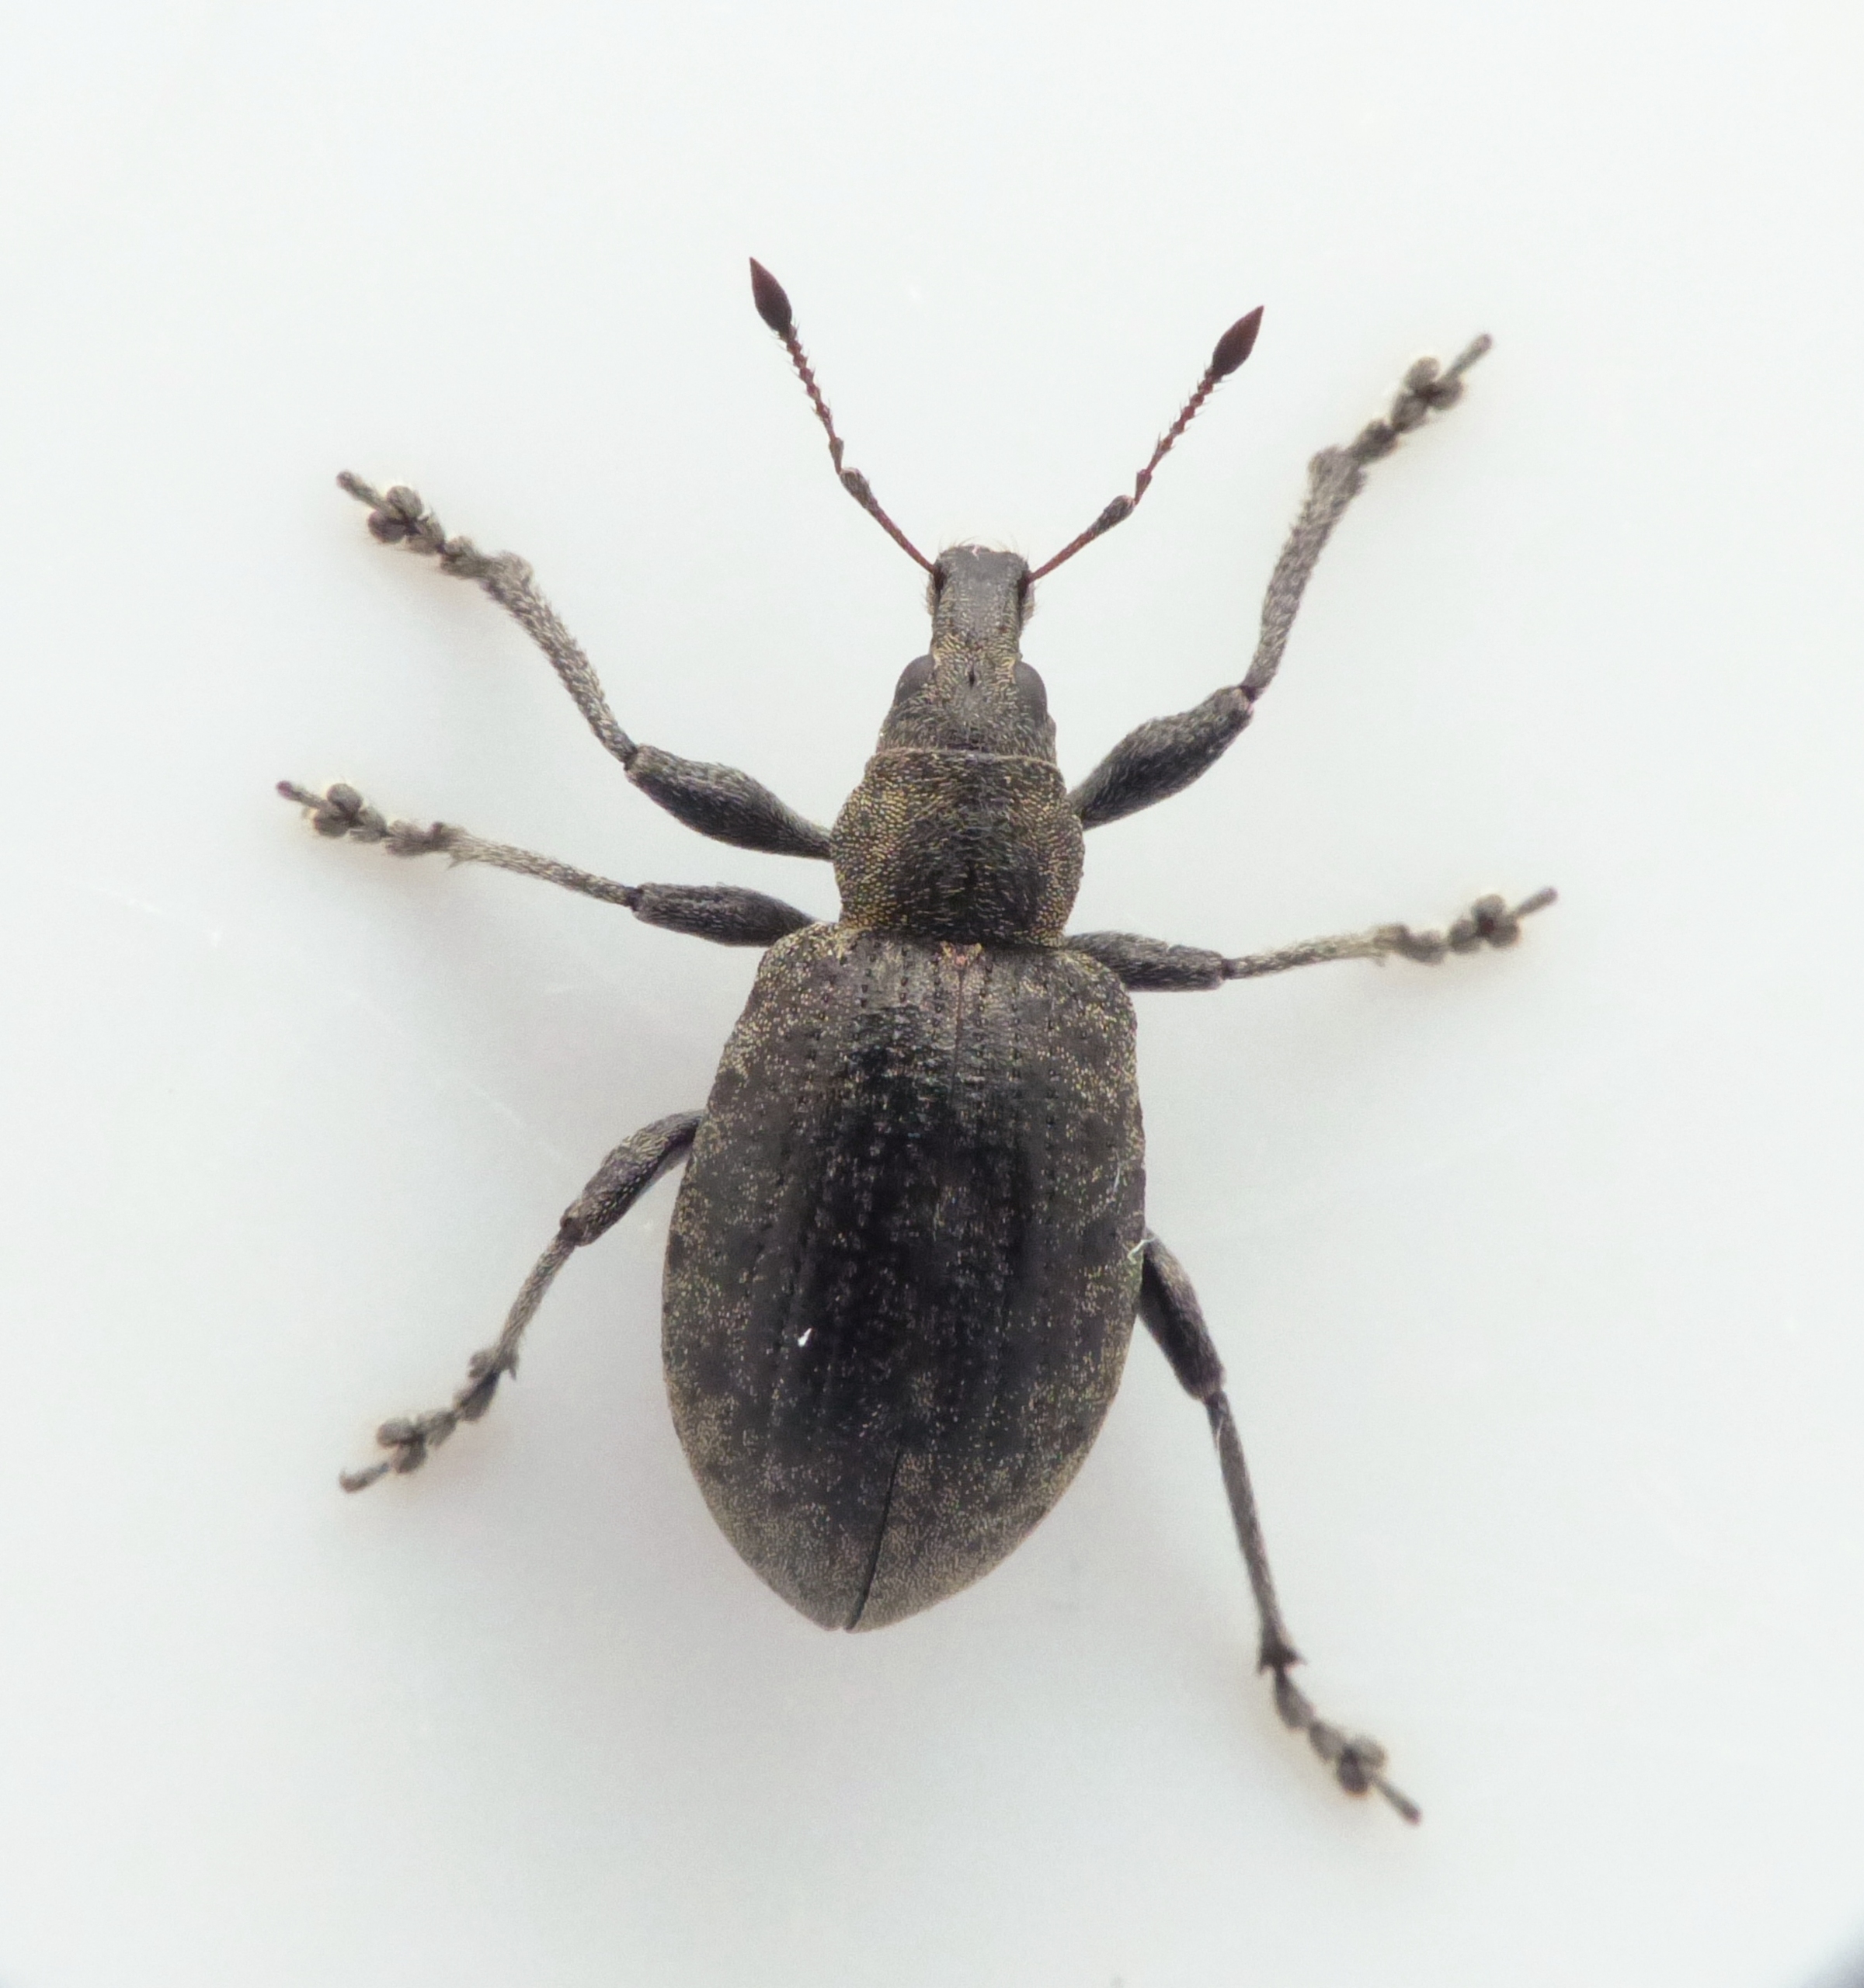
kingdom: Animalia
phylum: Arthropoda
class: Insecta
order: Coleoptera
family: Curculionidae
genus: Liophloeus
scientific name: Liophloeus tessulatus
